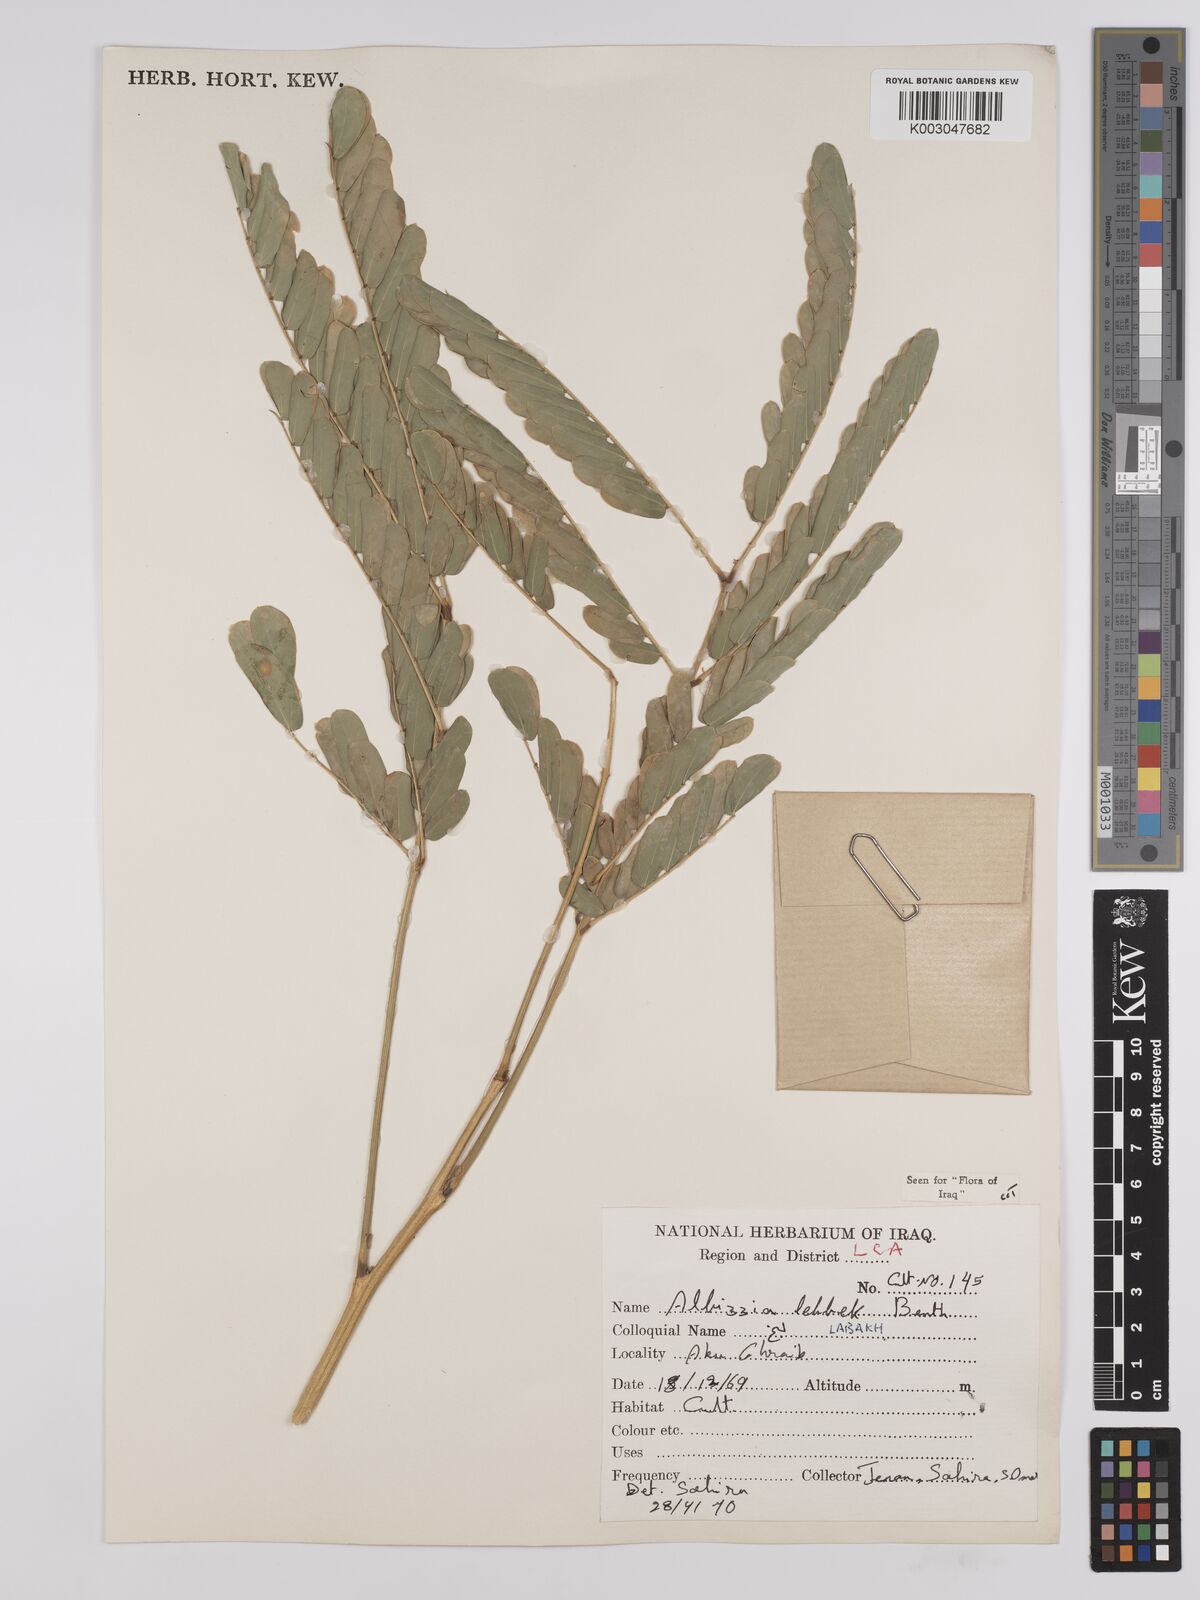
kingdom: Plantae
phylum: Tracheophyta
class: Magnoliopsida
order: Fabales
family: Fabaceae
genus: Albizia
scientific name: Albizia lebbeck
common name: Woman's tongue
